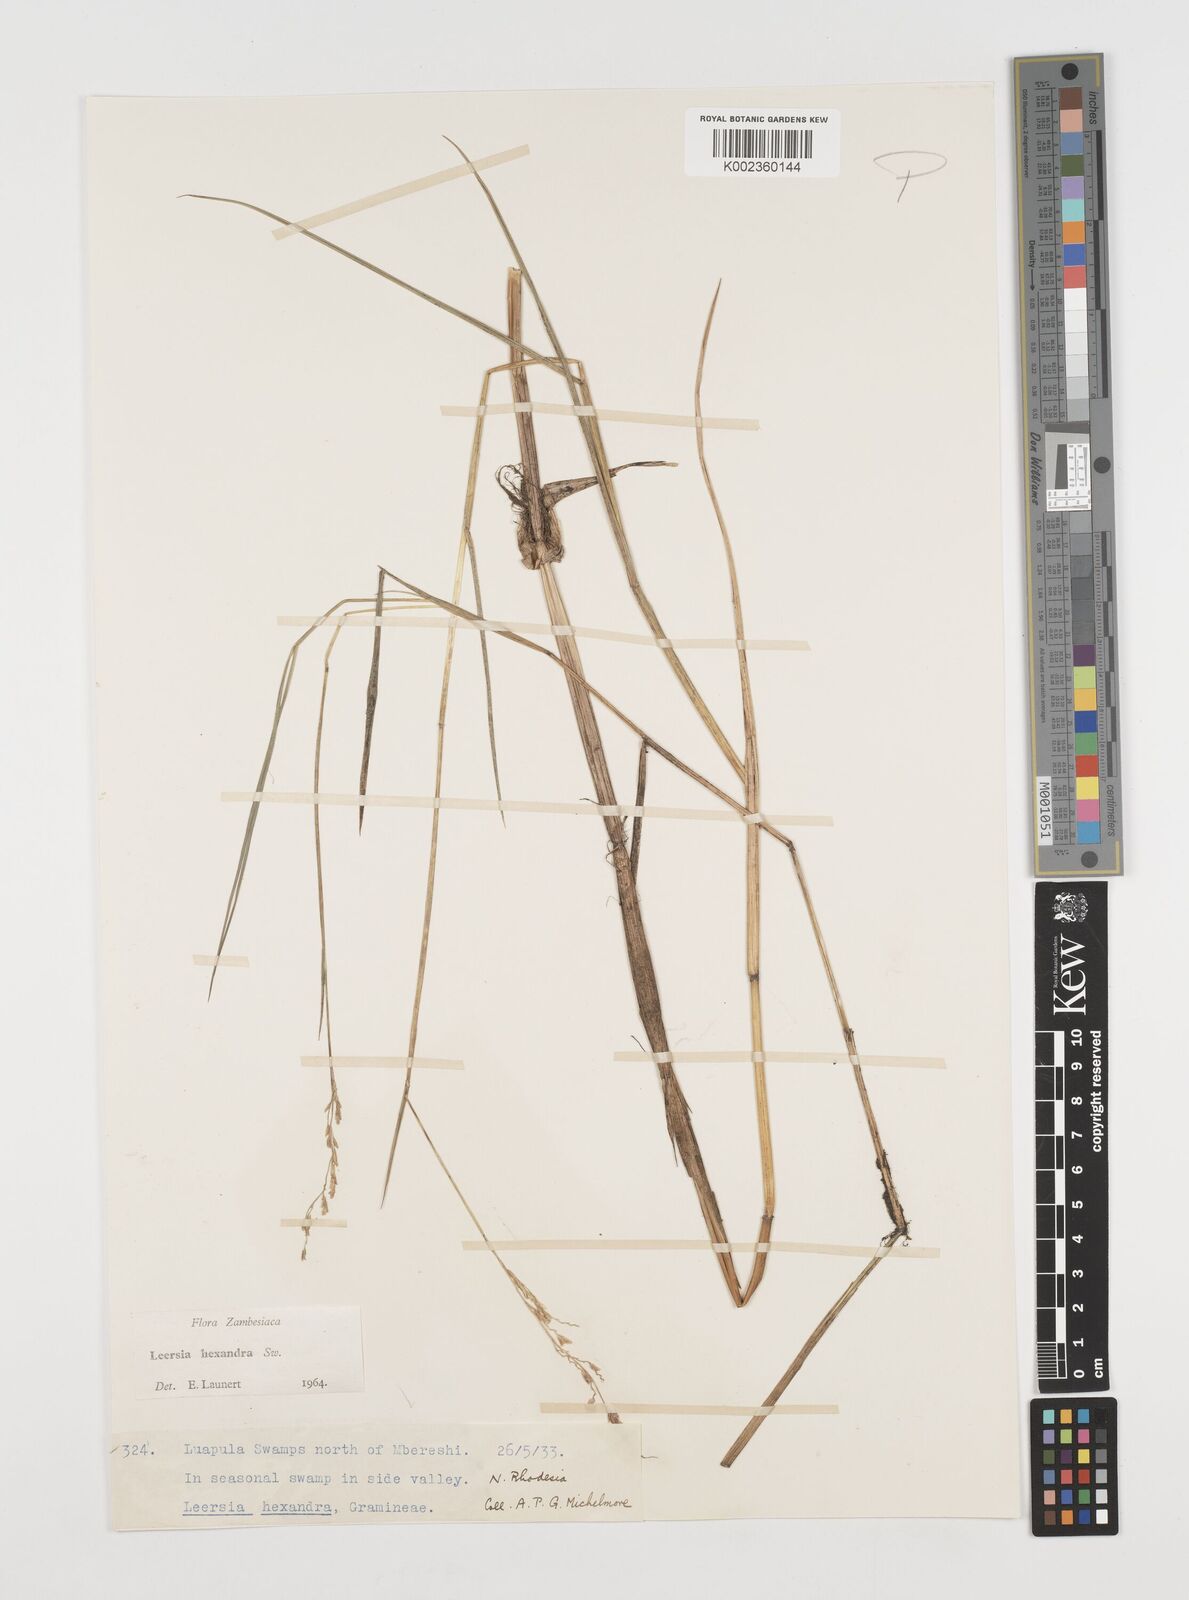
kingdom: Plantae
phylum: Tracheophyta
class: Liliopsida
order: Poales
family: Poaceae
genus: Leersia
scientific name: Leersia hexandra
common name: Southern cut grass
